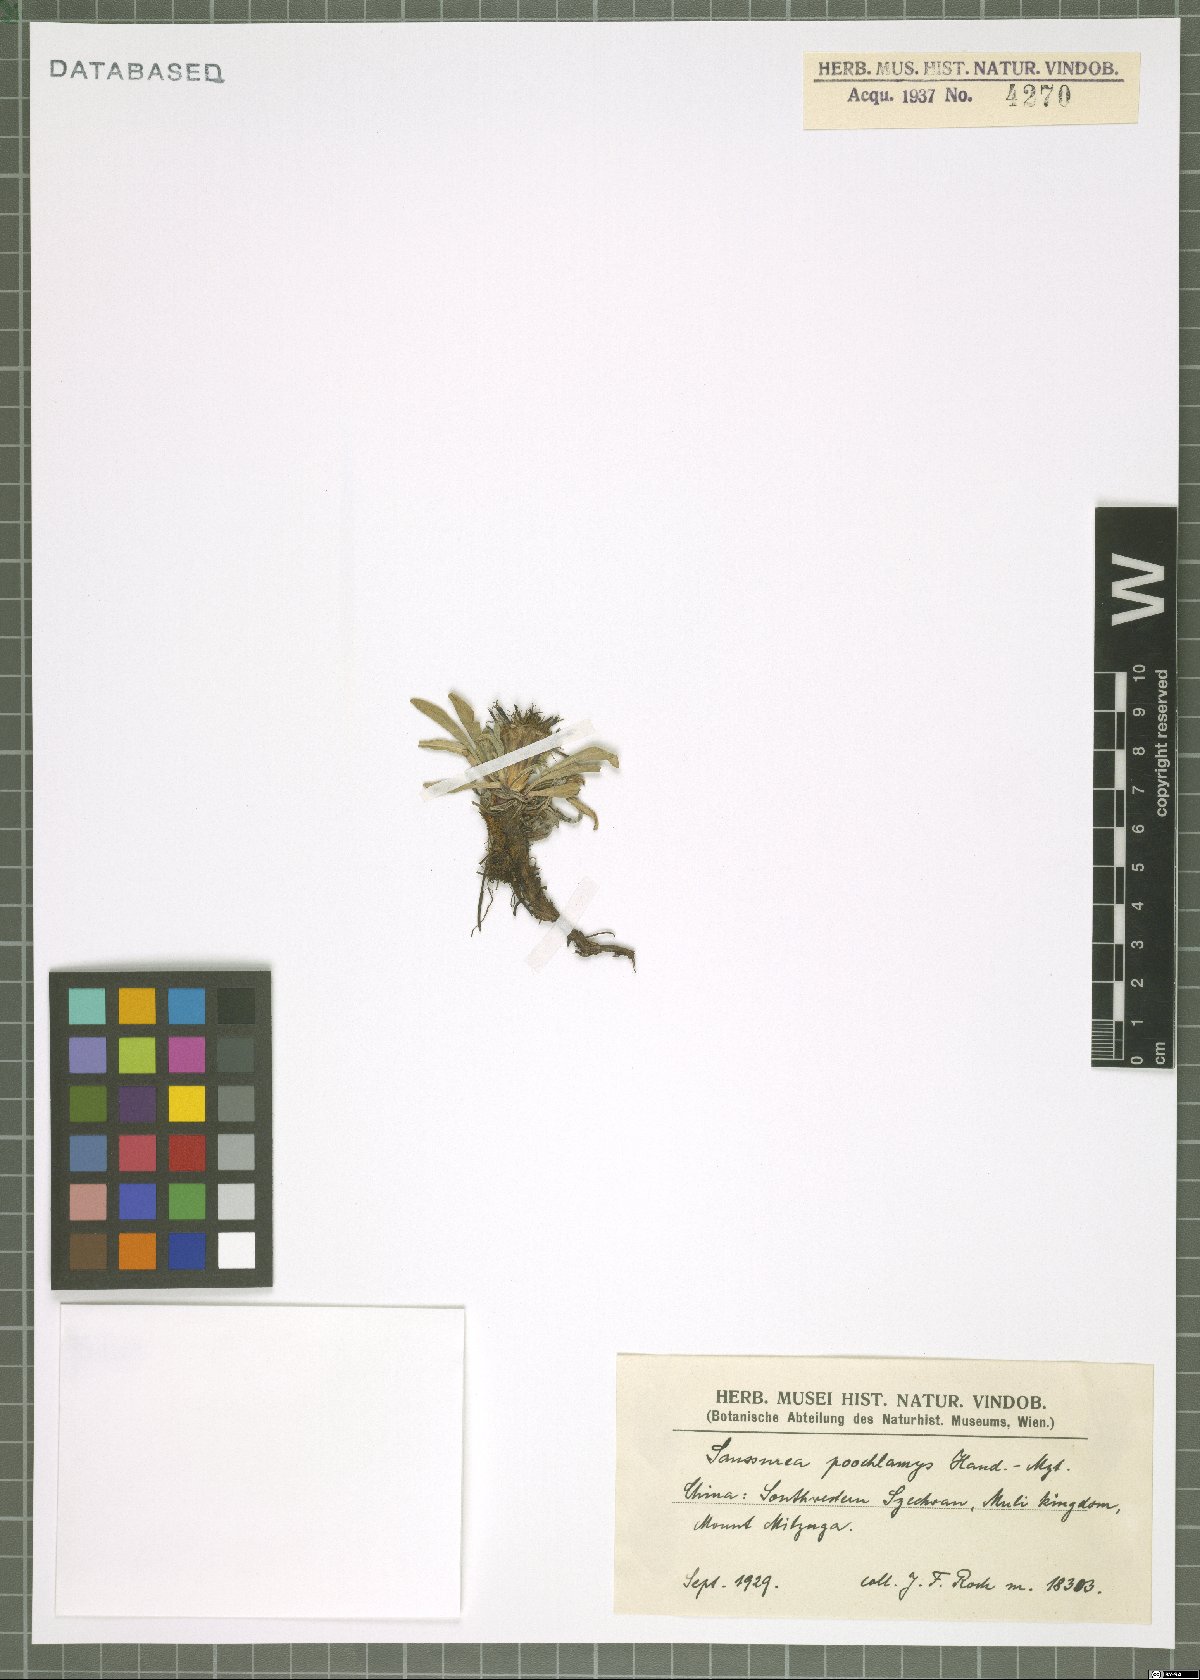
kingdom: Plantae
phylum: Tracheophyta
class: Magnoliopsida
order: Asterales
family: Asteraceae
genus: Saussurea
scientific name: Saussurea poochlamys
